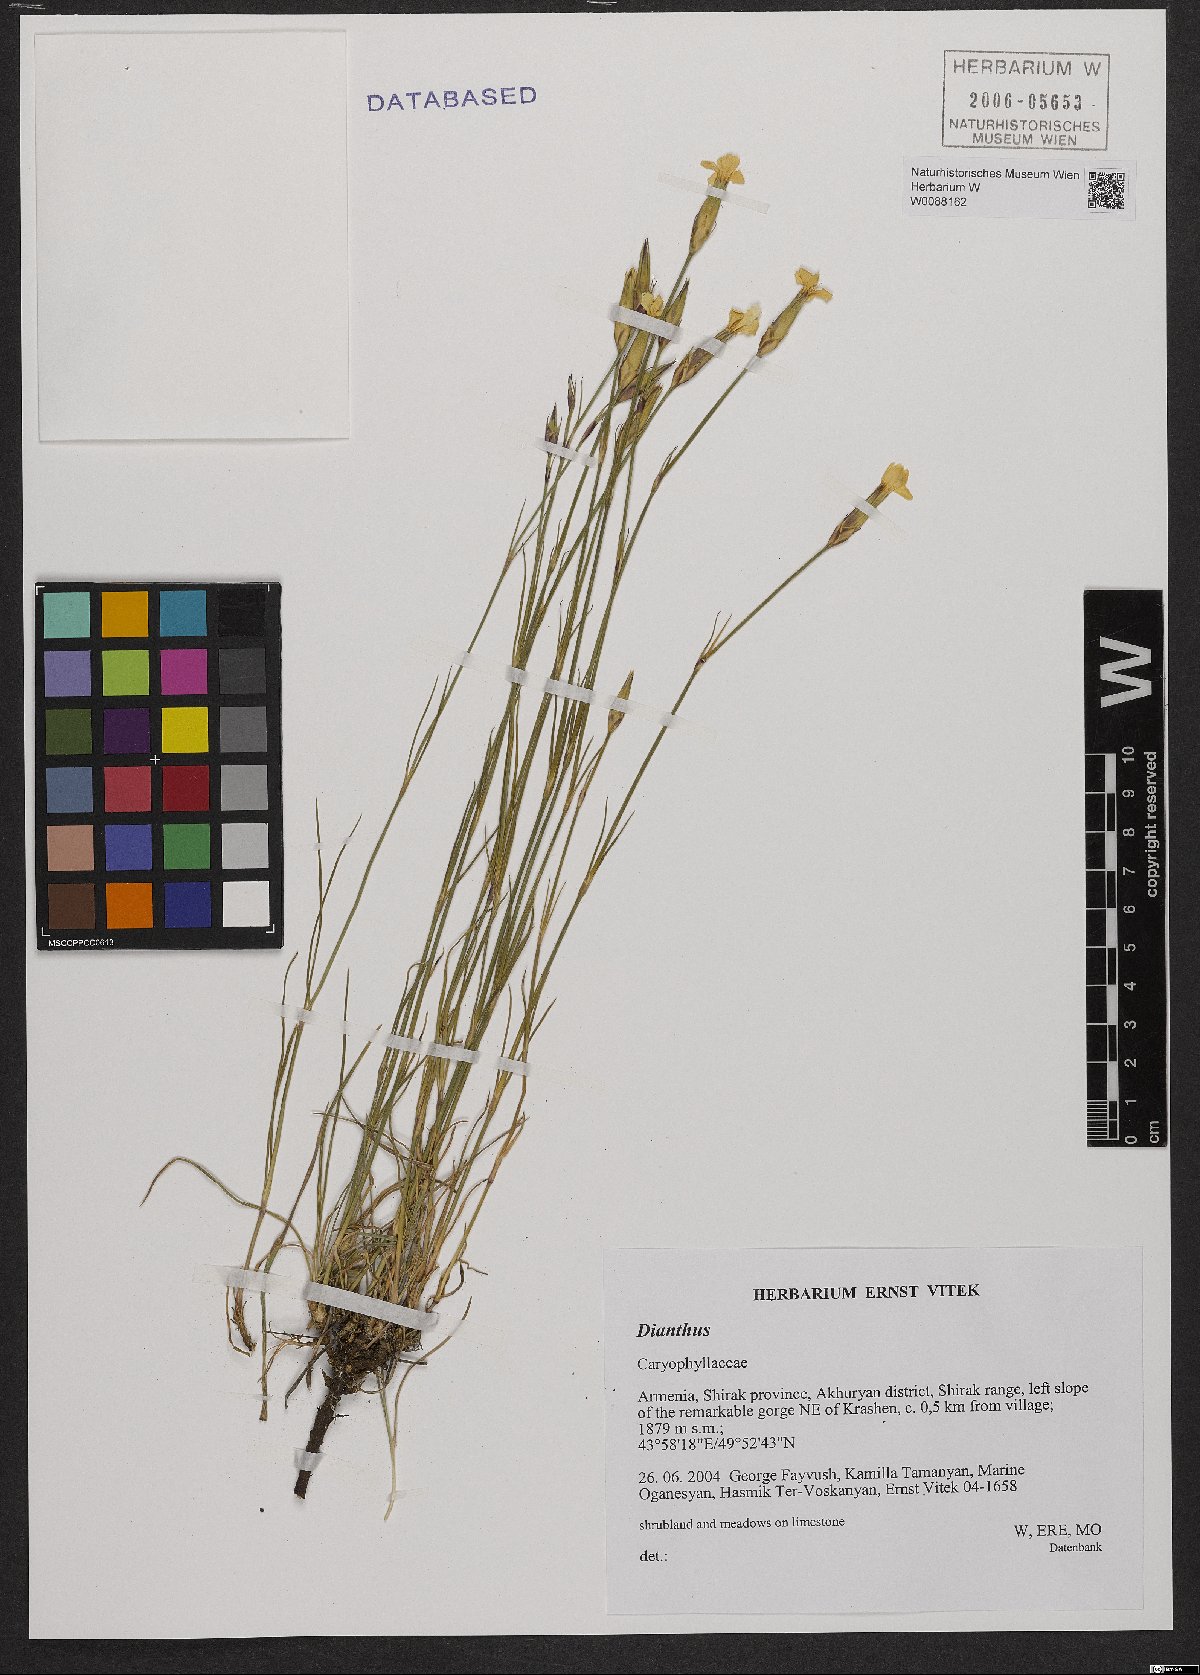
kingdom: Plantae
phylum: Tracheophyta
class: Magnoliopsida
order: Caryophyllales
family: Caryophyllaceae
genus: Dianthus
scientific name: Dianthus
